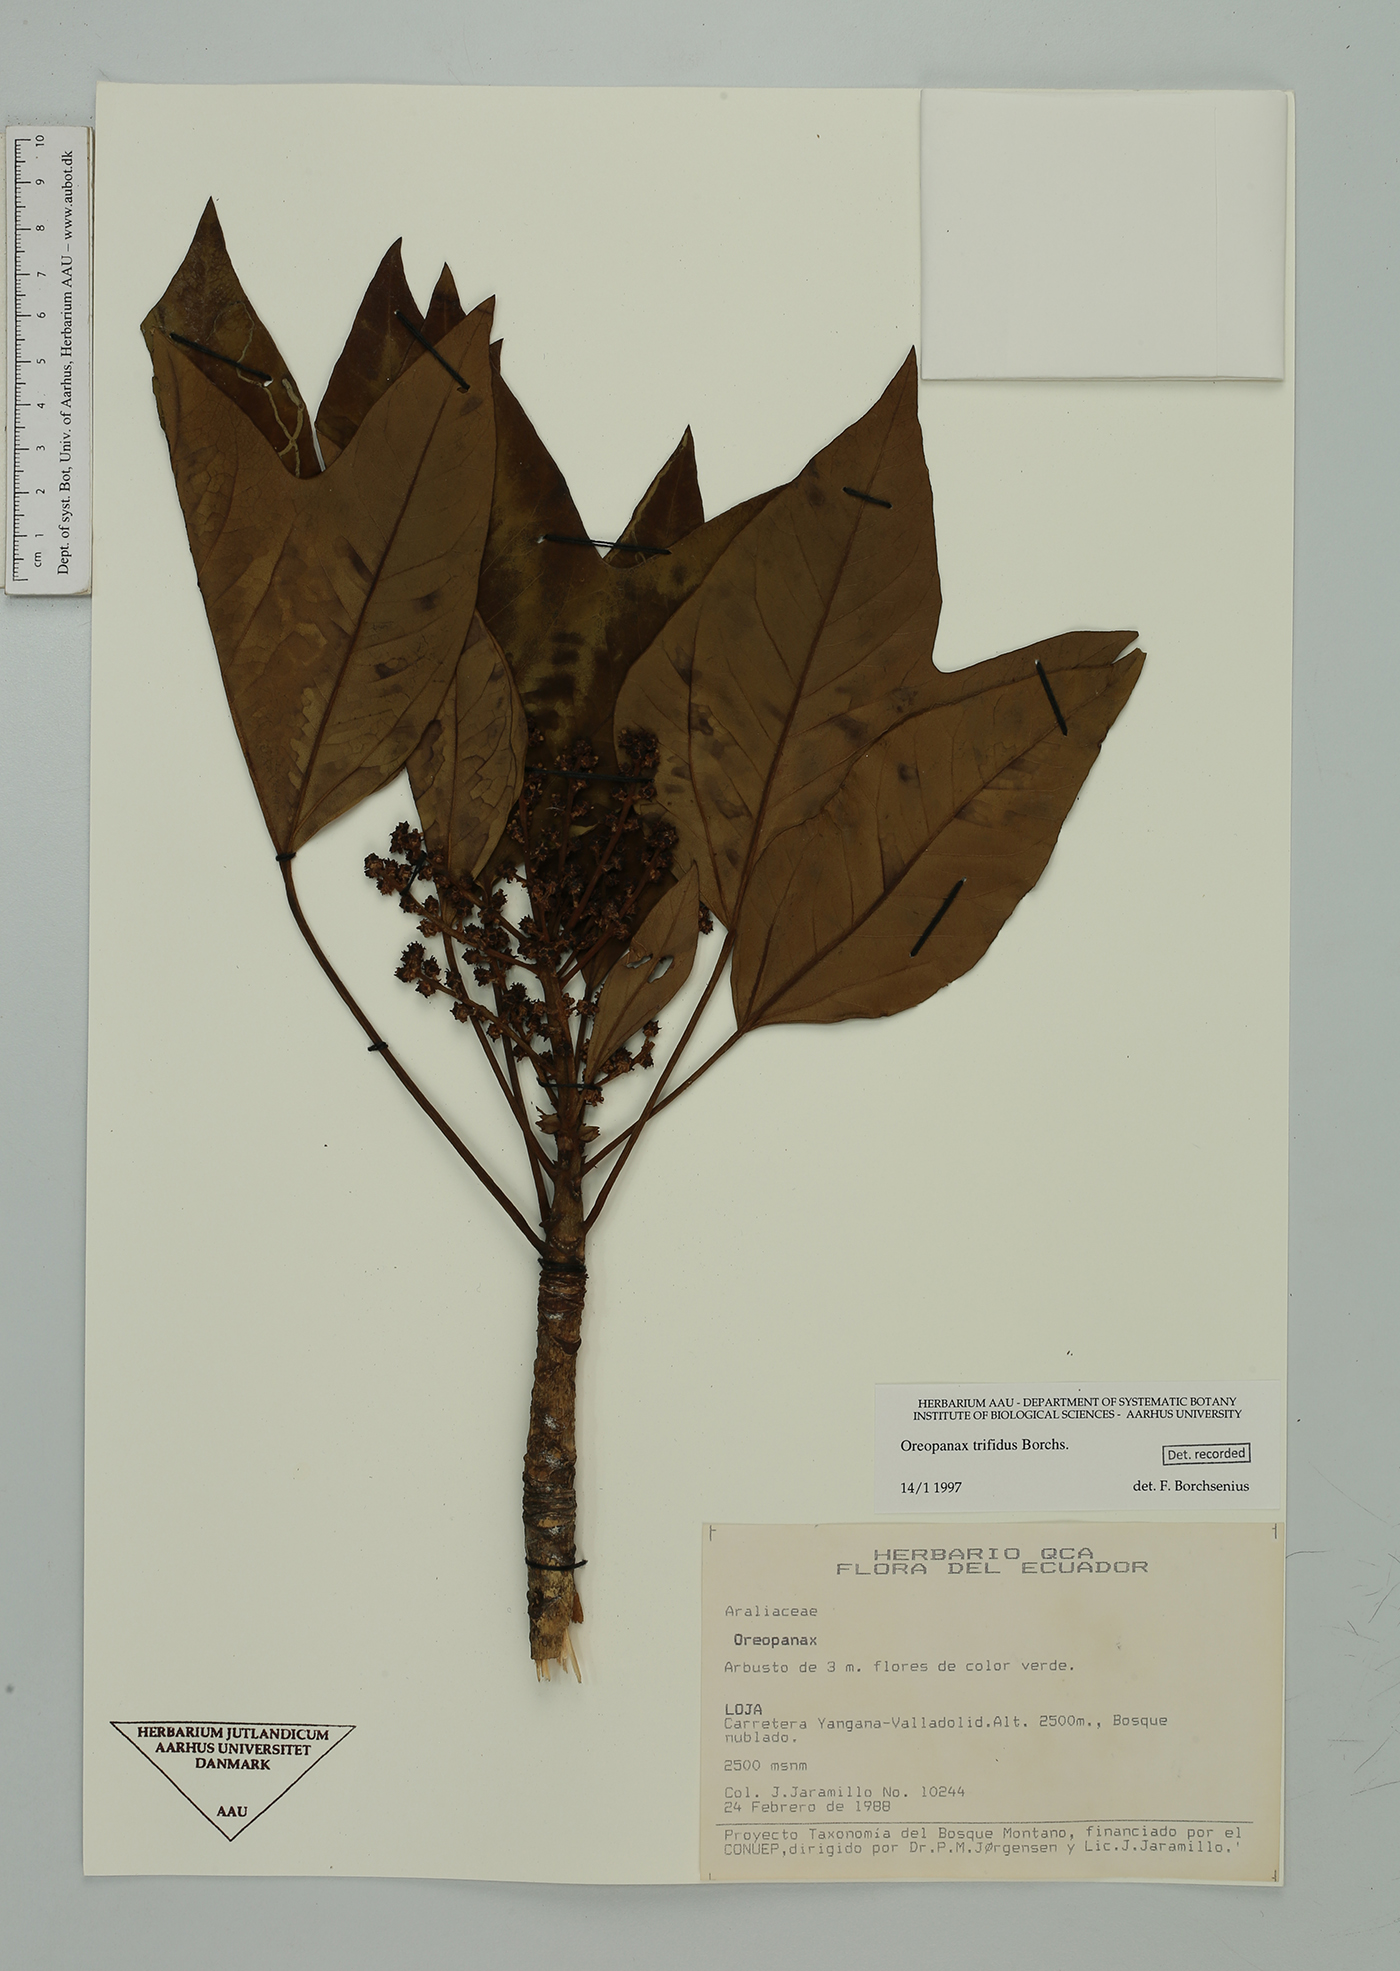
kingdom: Plantae
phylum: Tracheophyta
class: Magnoliopsida
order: Apiales
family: Araliaceae
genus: Oreopanax
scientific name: Oreopanax trifidus
